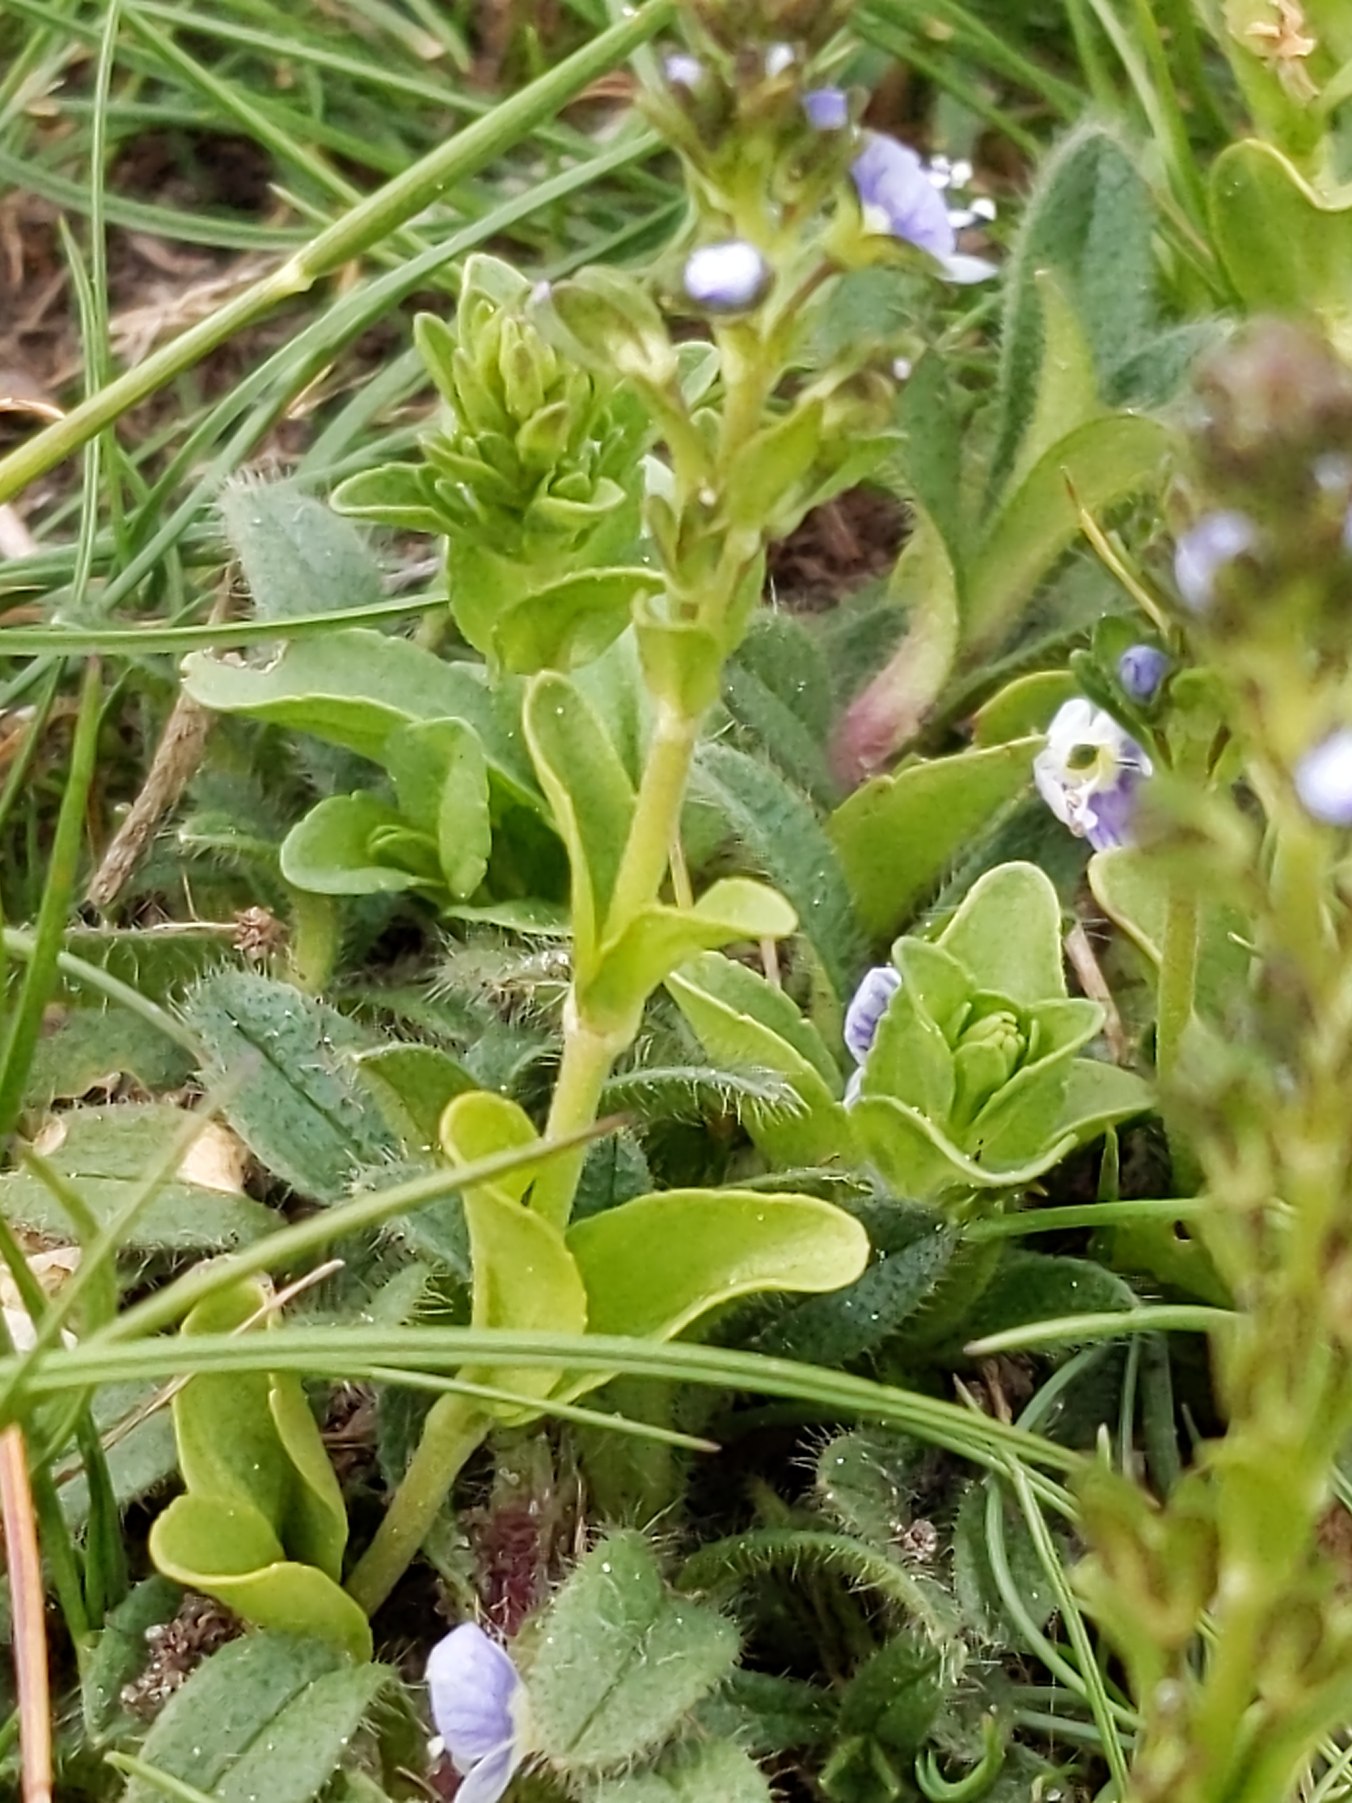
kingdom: Plantae
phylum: Tracheophyta
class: Magnoliopsida
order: Lamiales
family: Plantaginaceae
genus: Veronica
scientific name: Veronica serpyllifolia
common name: Glat ærenpris
